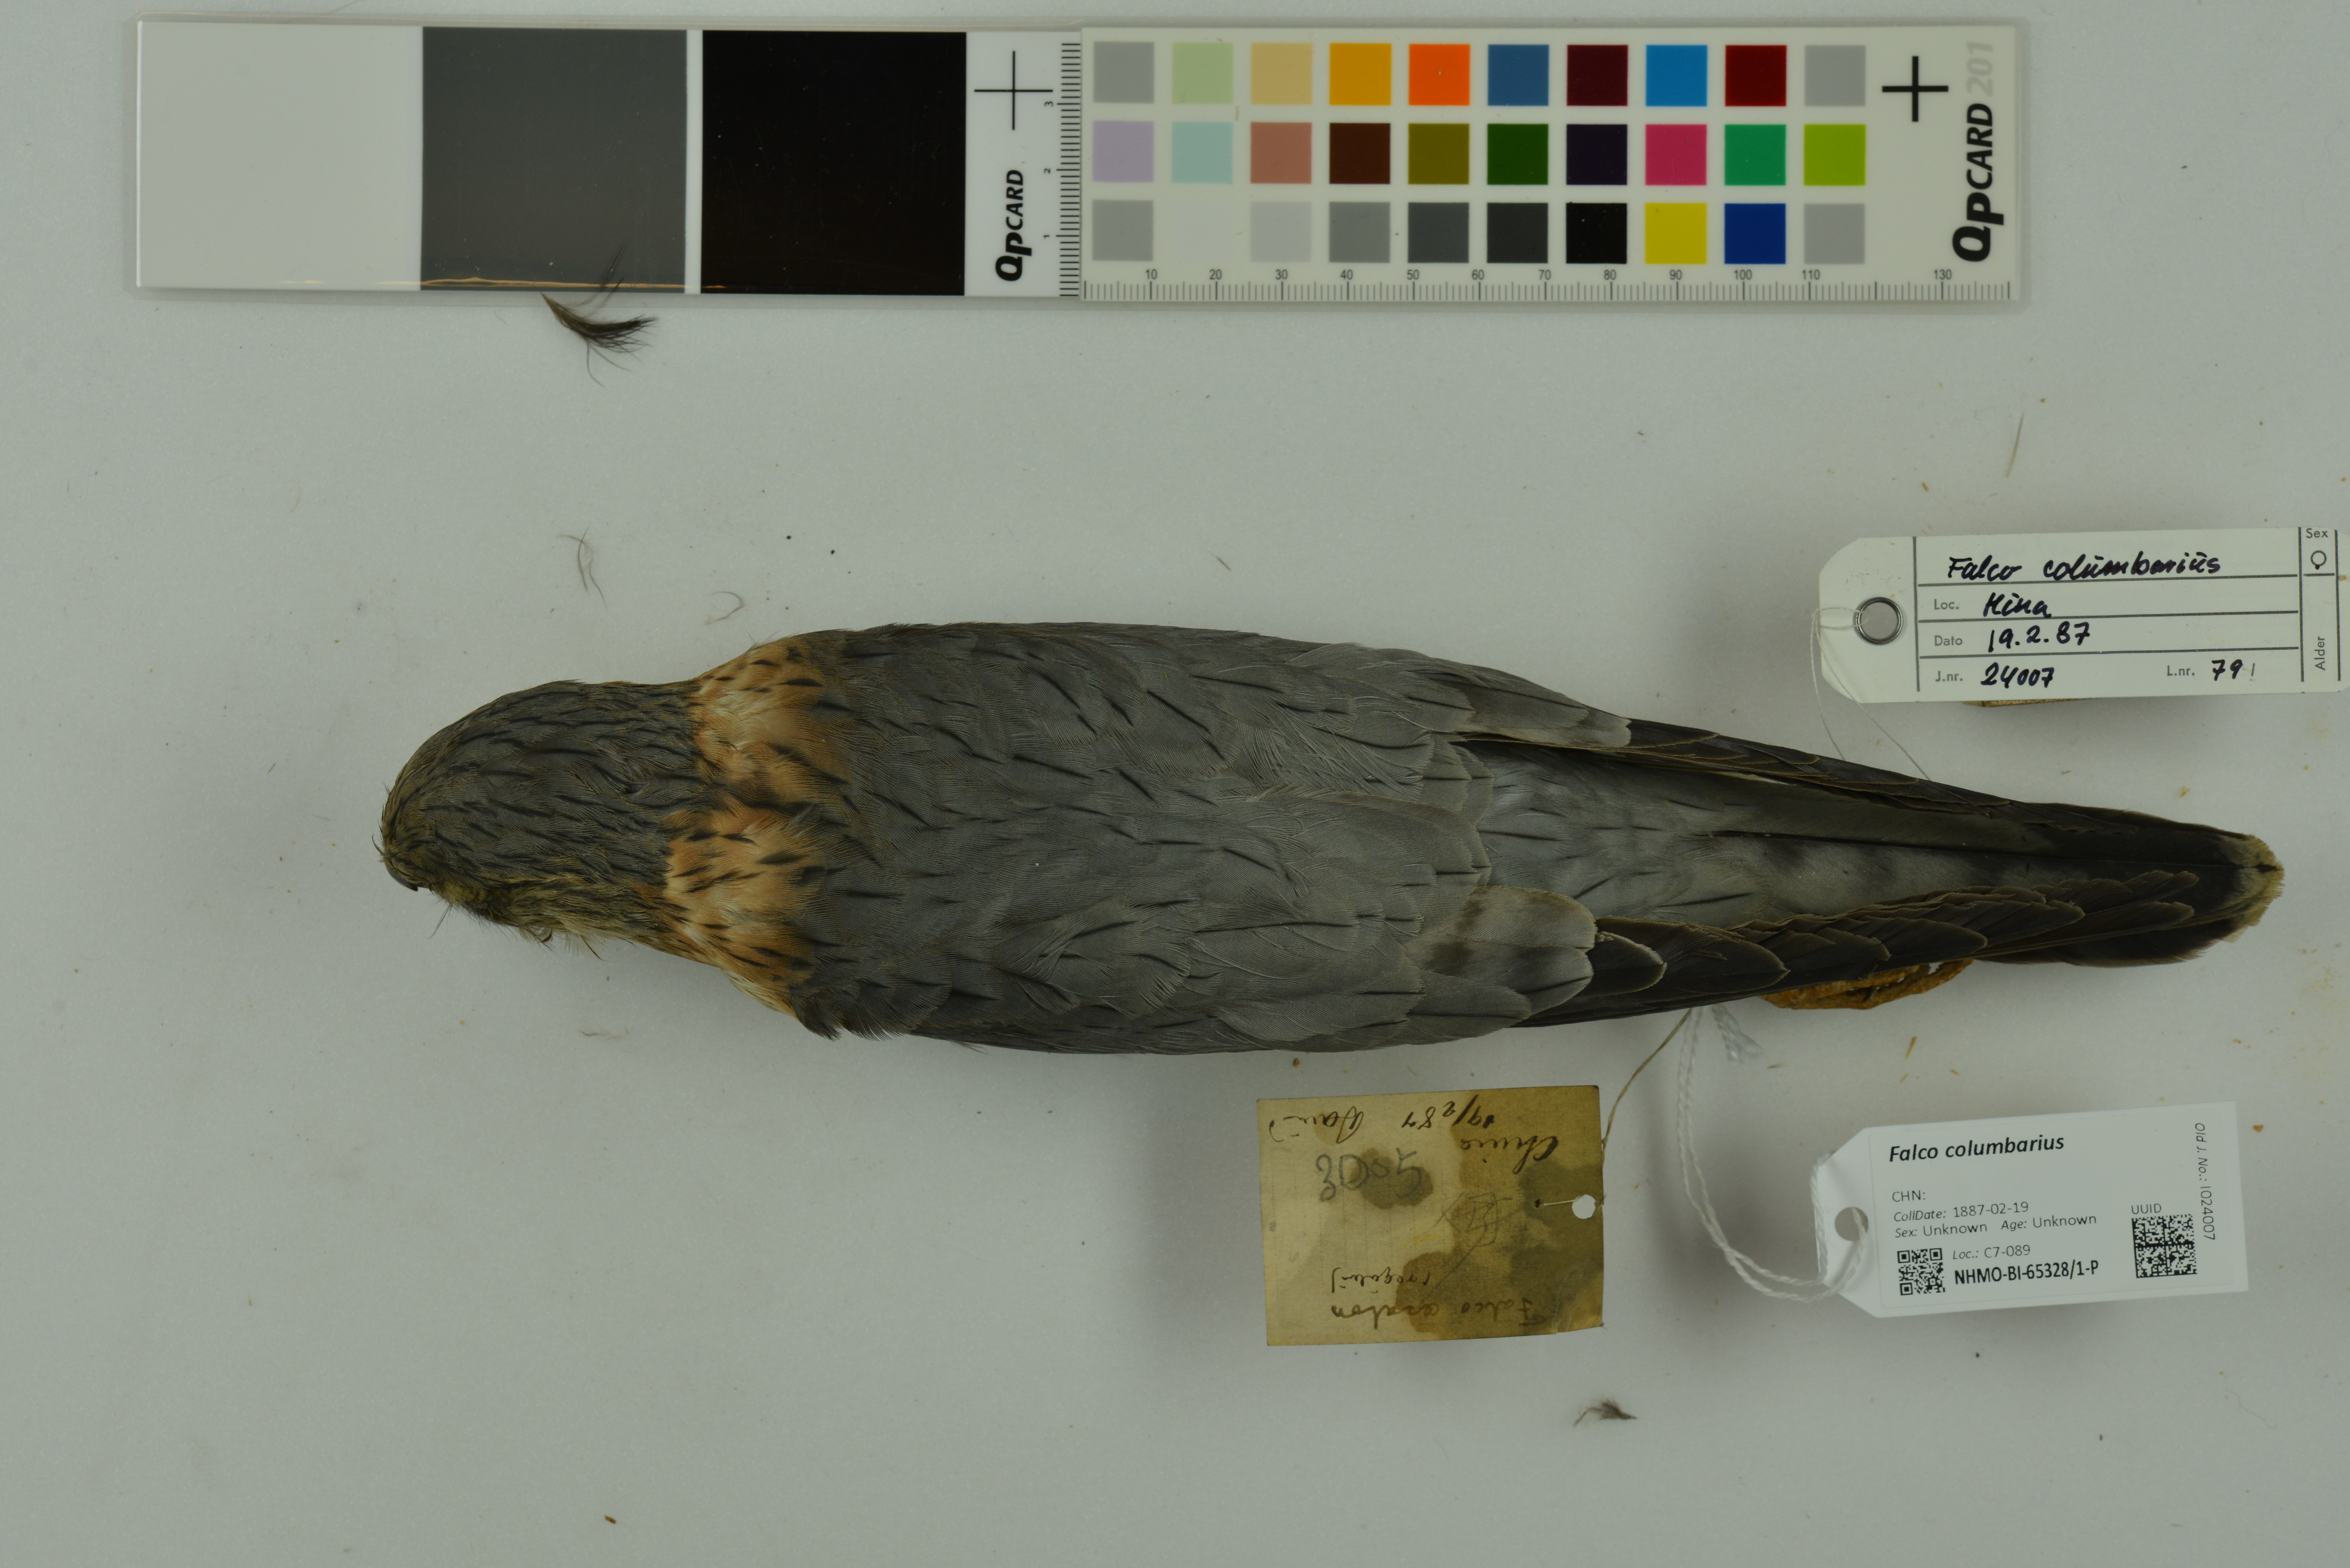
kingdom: Animalia
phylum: Chordata
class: Aves
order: Falconiformes
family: Falconidae
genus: Falco
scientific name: Falco columbarius
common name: Merlin
